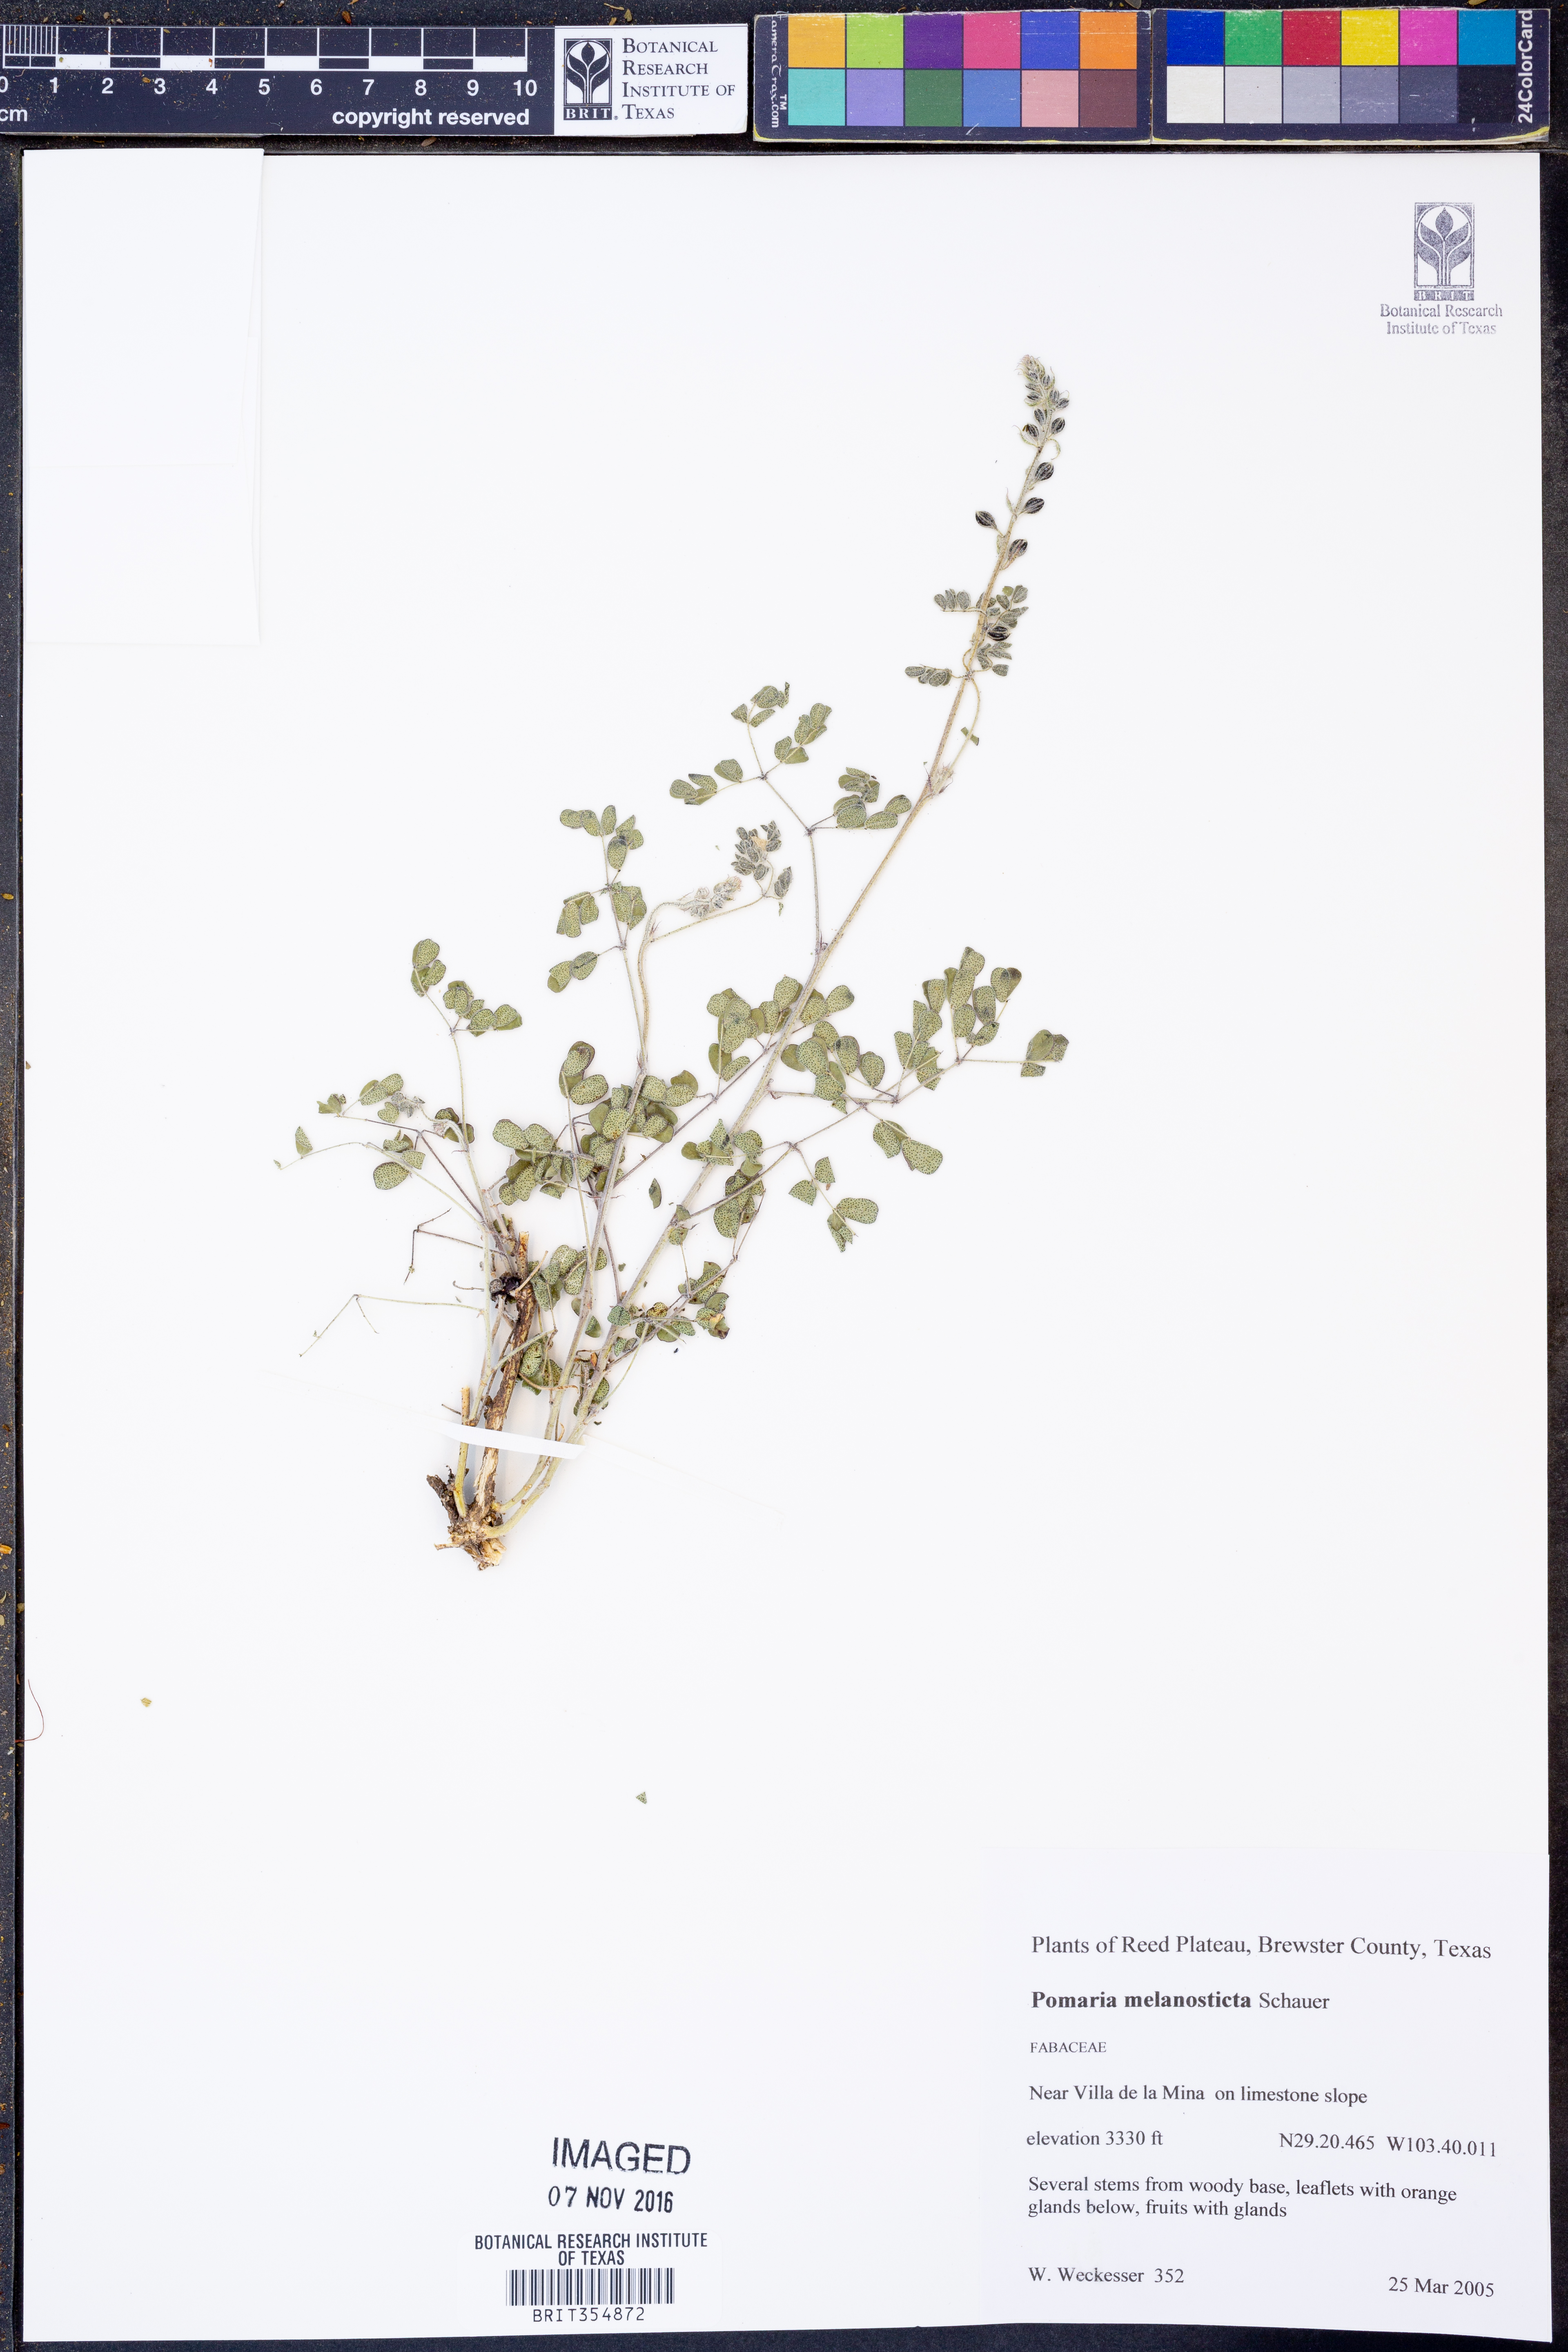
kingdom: Plantae
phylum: Tracheophyta
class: Magnoliopsida
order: Fabales
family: Fabaceae
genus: Pomaria
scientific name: Pomaria melanosticta
